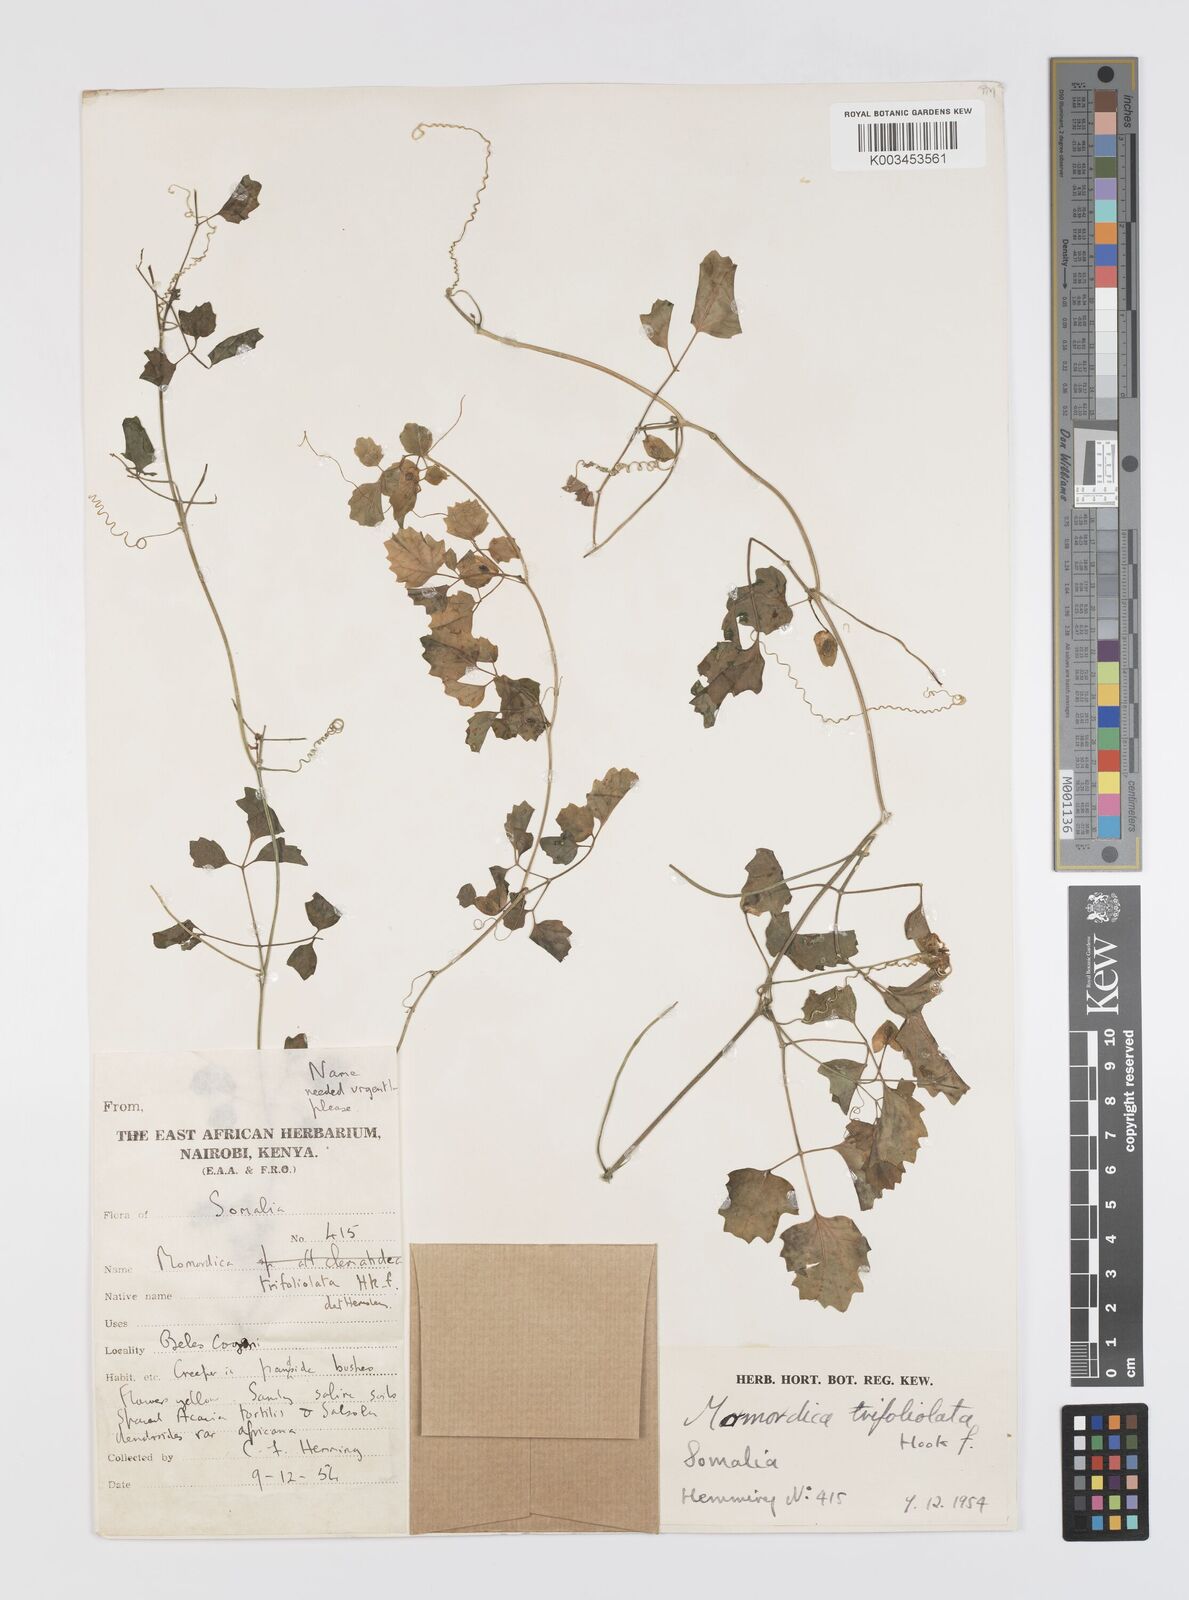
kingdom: Plantae
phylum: Tracheophyta
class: Magnoliopsida
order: Cucurbitales
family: Cucurbitaceae
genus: Momordica
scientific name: Momordica trifoliolata
